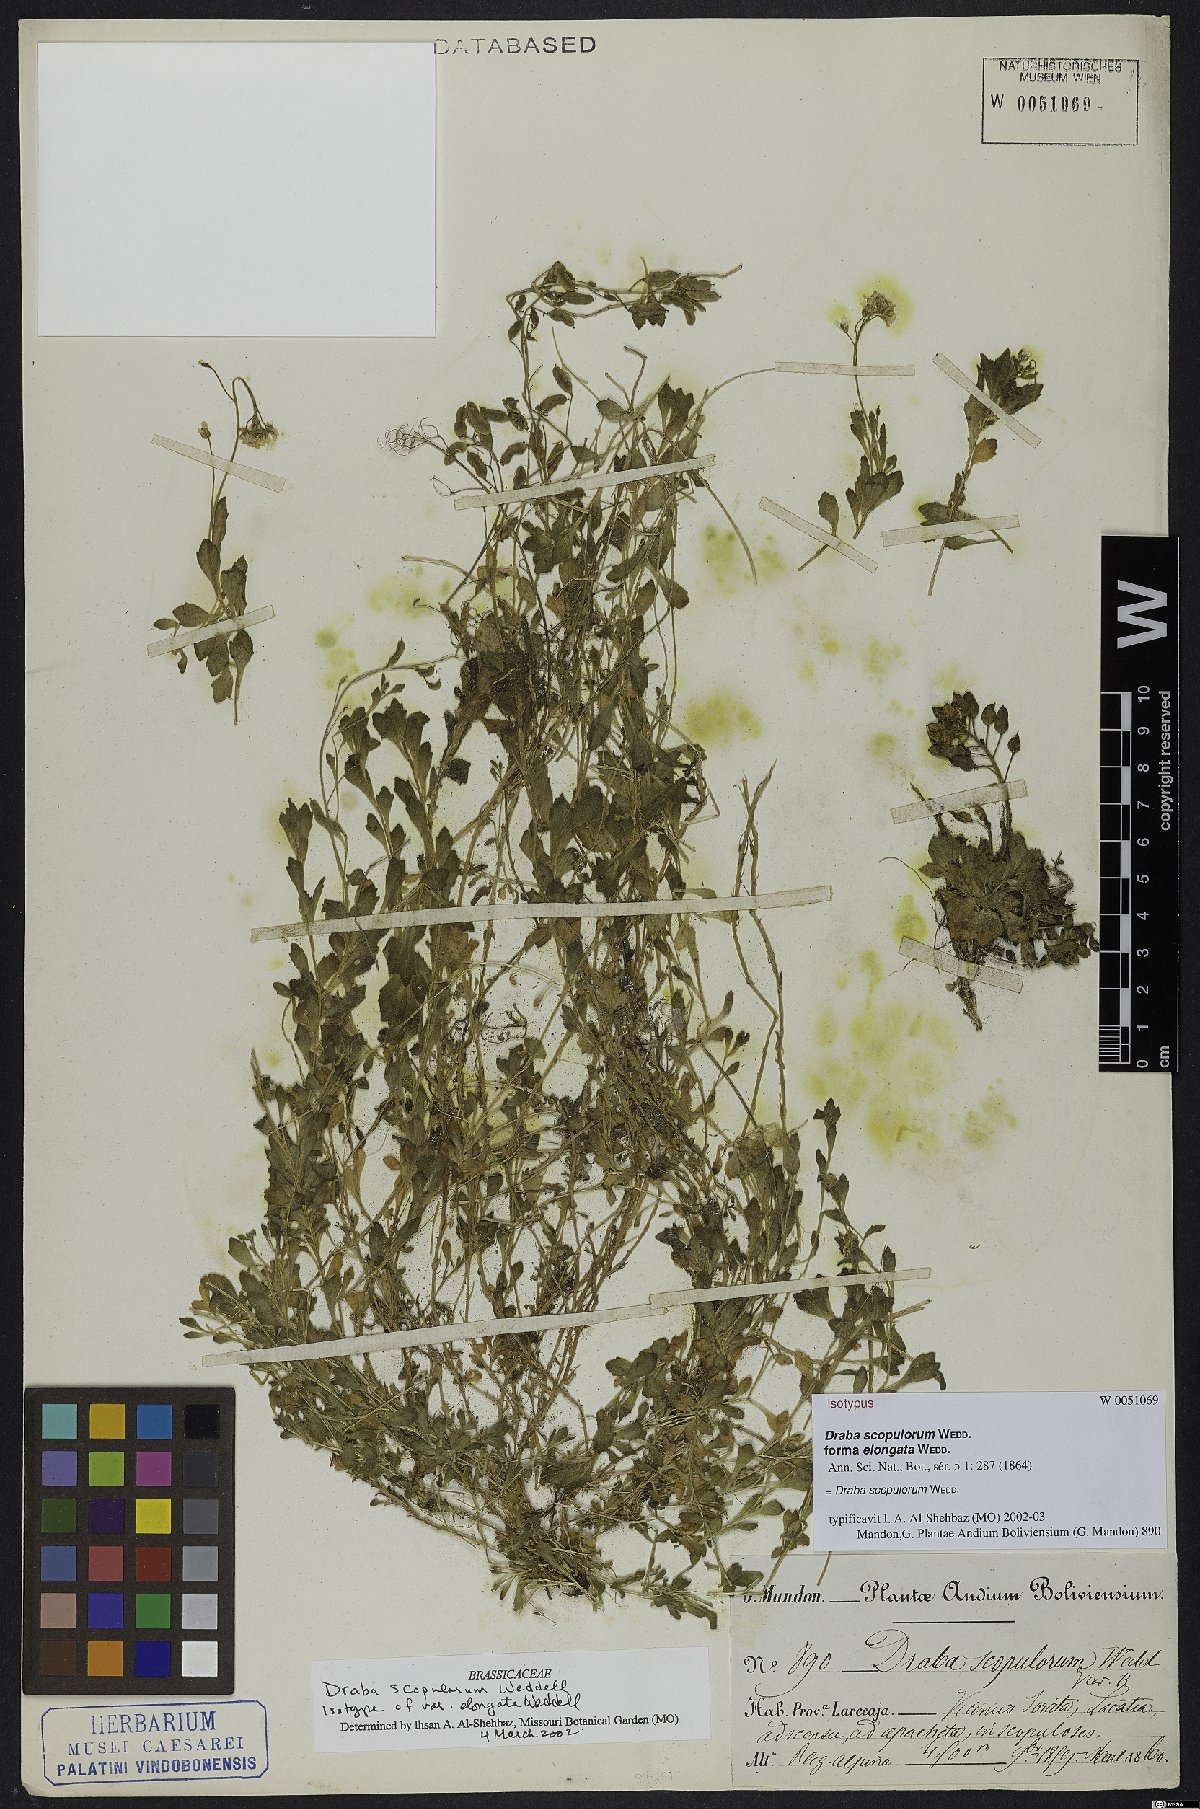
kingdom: Plantae
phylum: Tracheophyta
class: Magnoliopsida
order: Brassicales
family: Brassicaceae
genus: Draba
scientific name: Draba scopulorum
